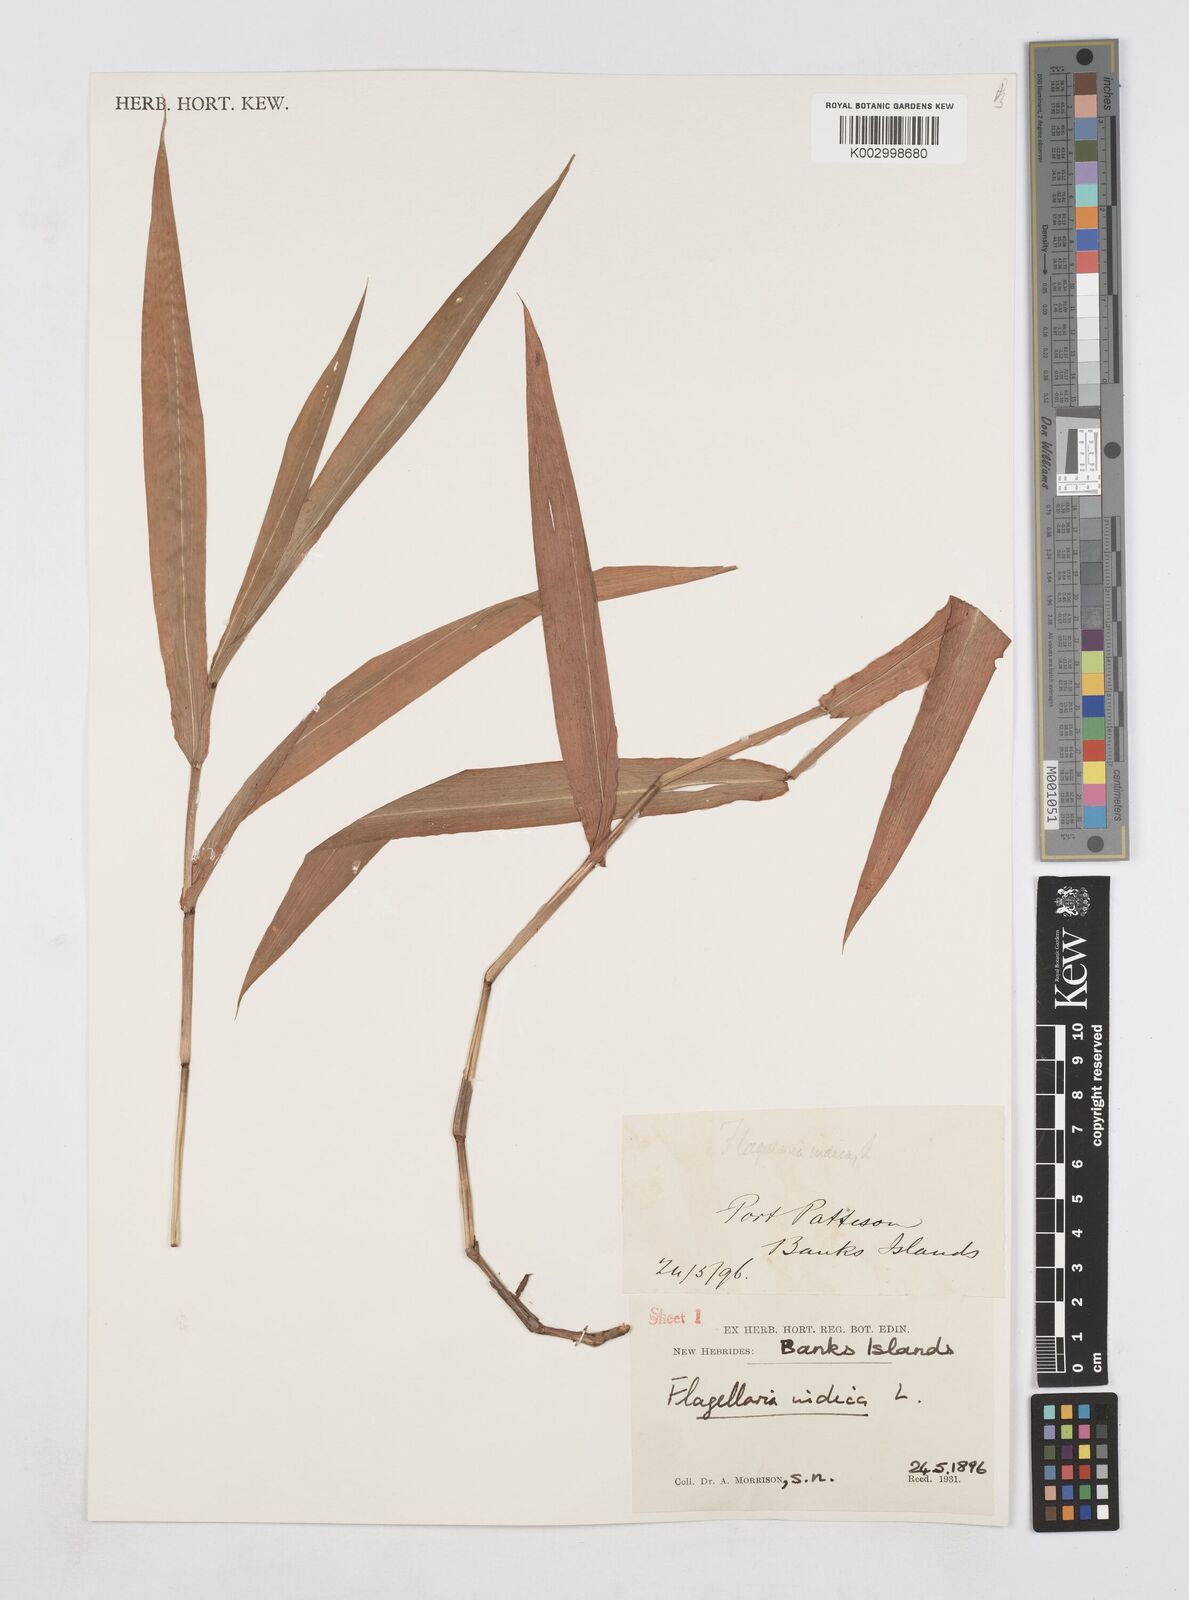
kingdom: Plantae
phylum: Tracheophyta
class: Liliopsida
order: Poales
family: Flagellariaceae
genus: Flagellaria
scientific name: Flagellaria indica
